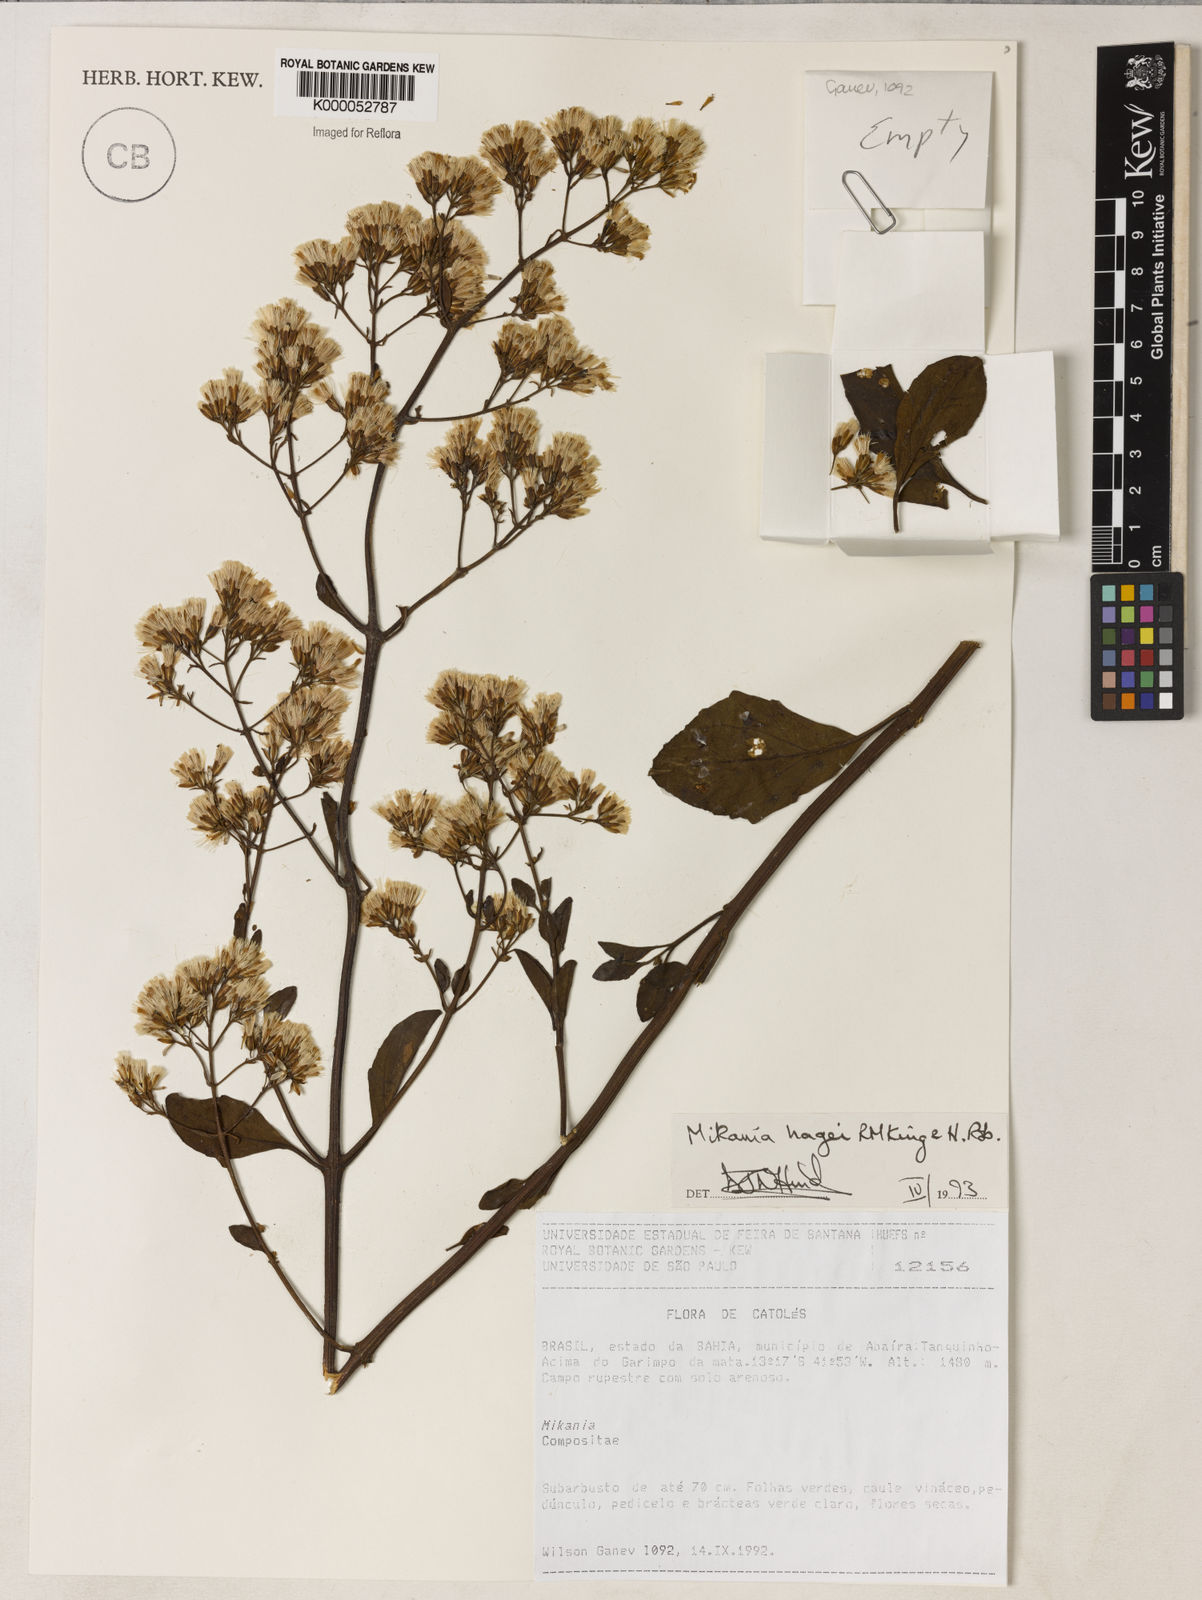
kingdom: Plantae
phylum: Tracheophyta
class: Magnoliopsida
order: Asterales
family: Asteraceae
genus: Mikania
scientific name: Mikania hagei
